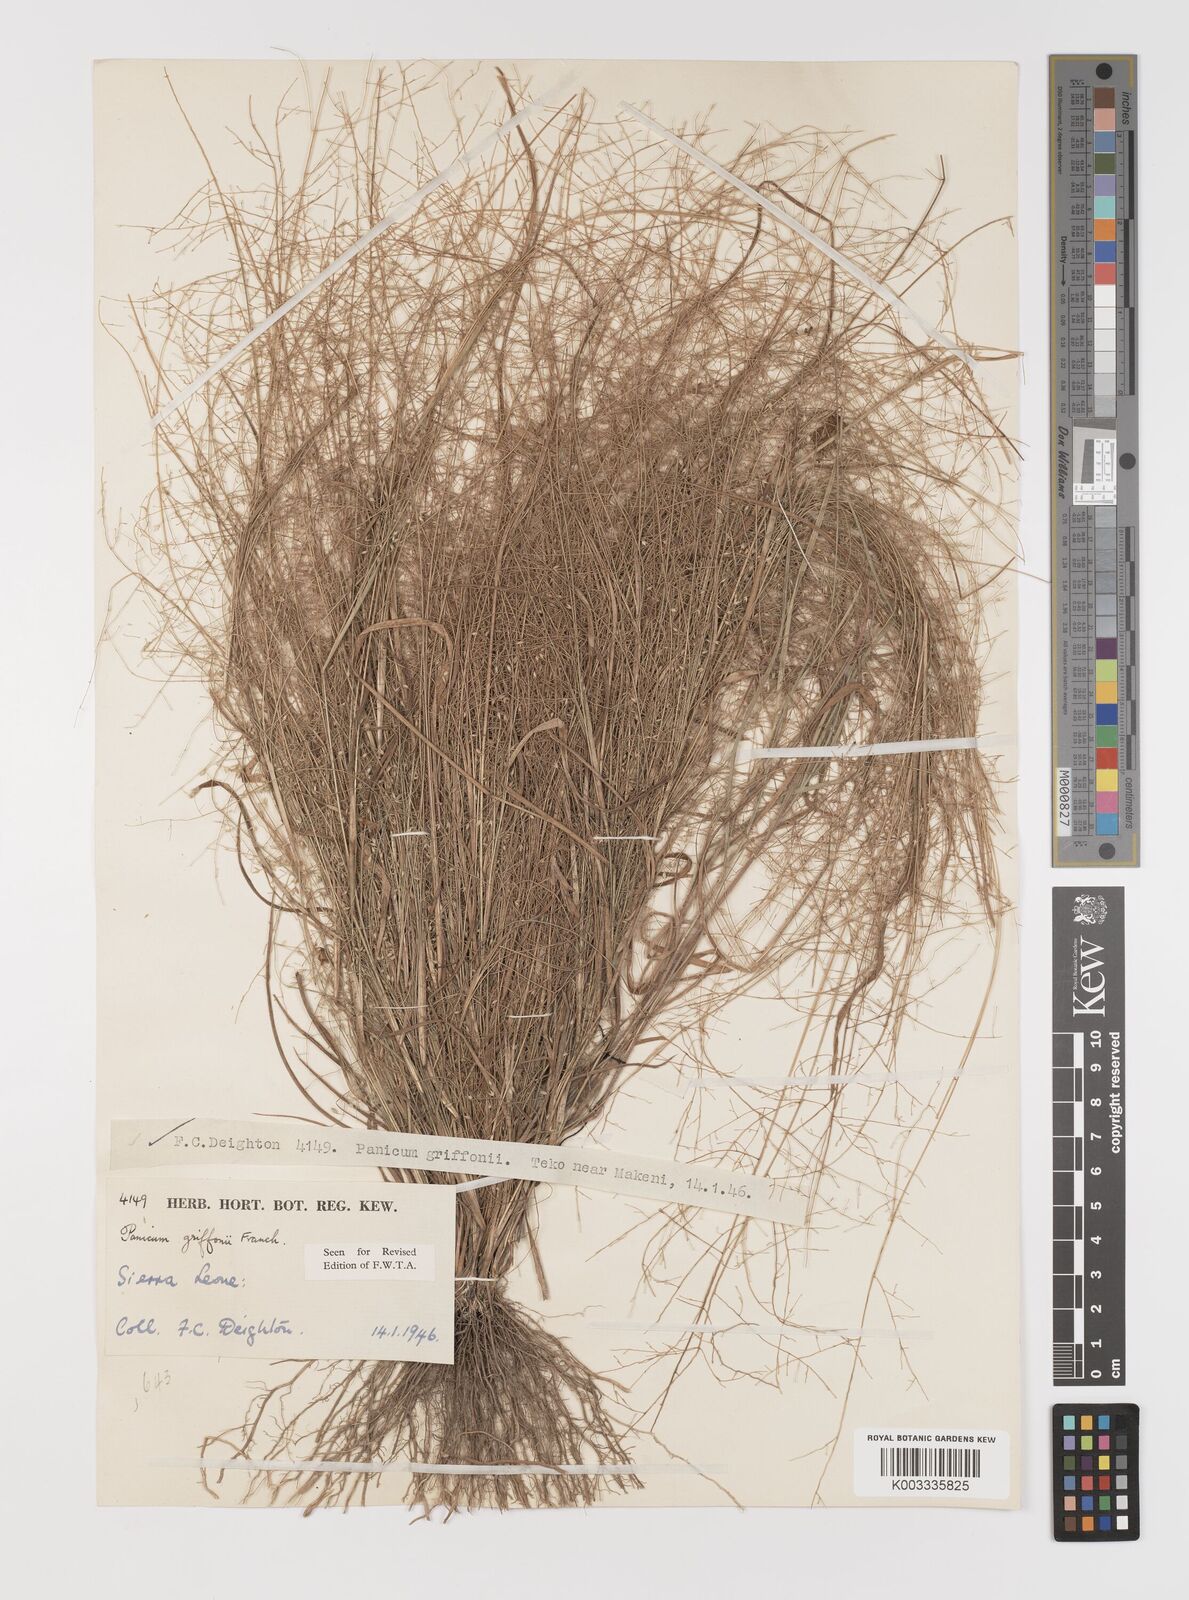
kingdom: Plantae
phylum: Tracheophyta
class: Liliopsida
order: Poales
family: Poaceae
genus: Panicum
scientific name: Panicum griffonii
